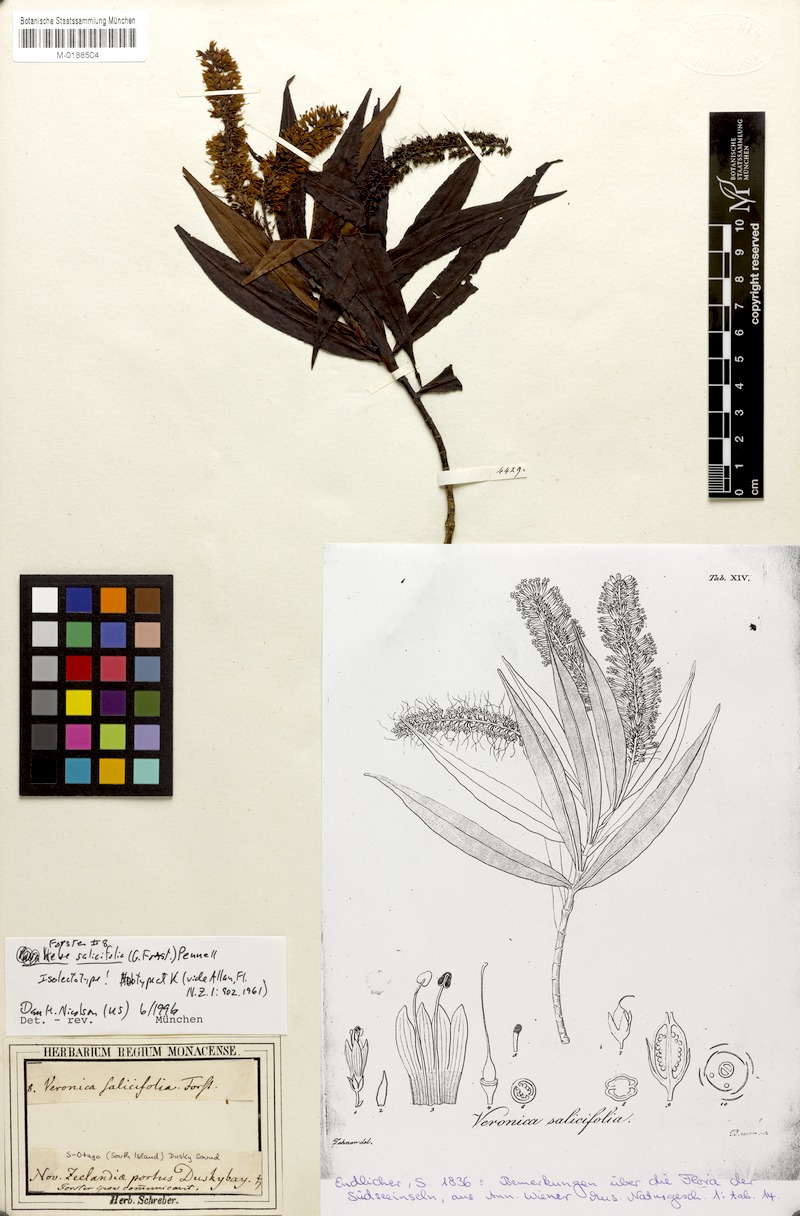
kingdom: Plantae
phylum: Tracheophyta
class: Magnoliopsida
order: Lamiales
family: Plantaginaceae
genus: Veronica
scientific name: Veronica salicifolia
